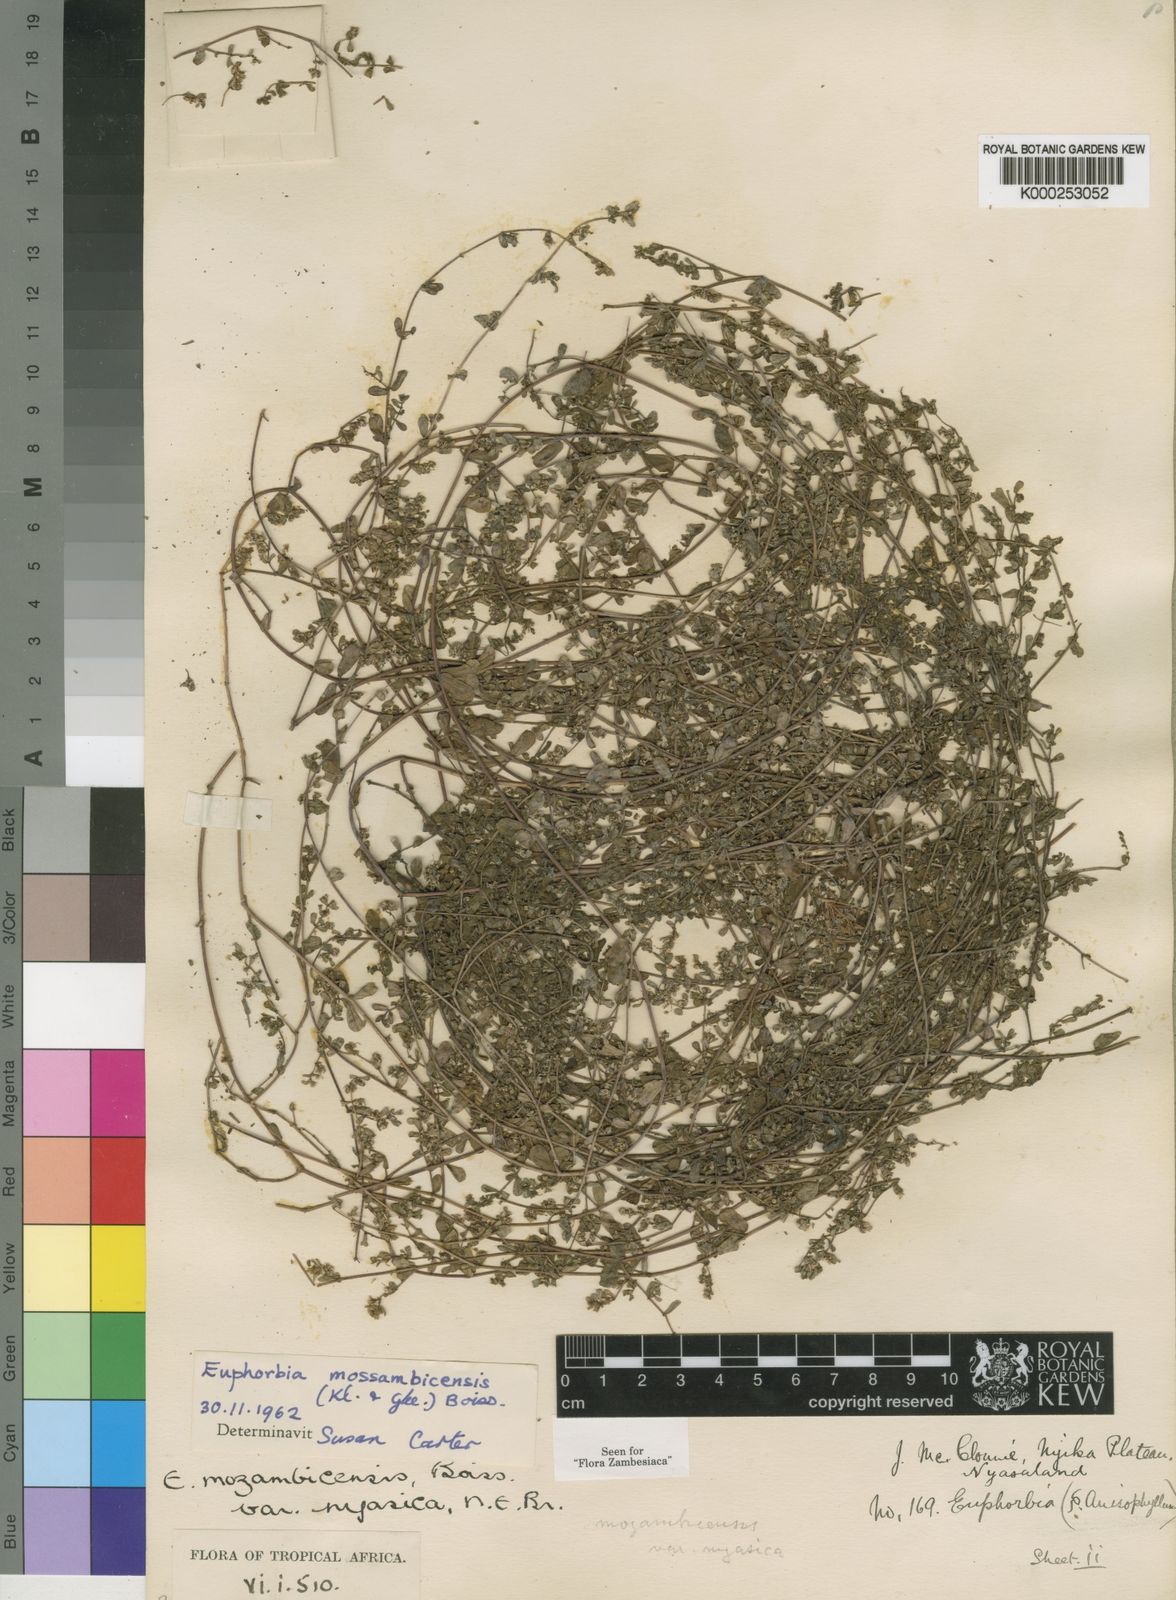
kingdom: Plantae
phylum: Tracheophyta
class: Magnoliopsida
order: Malpighiales
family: Euphorbiaceae
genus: Euphorbia
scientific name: Euphorbia mossambicensis
